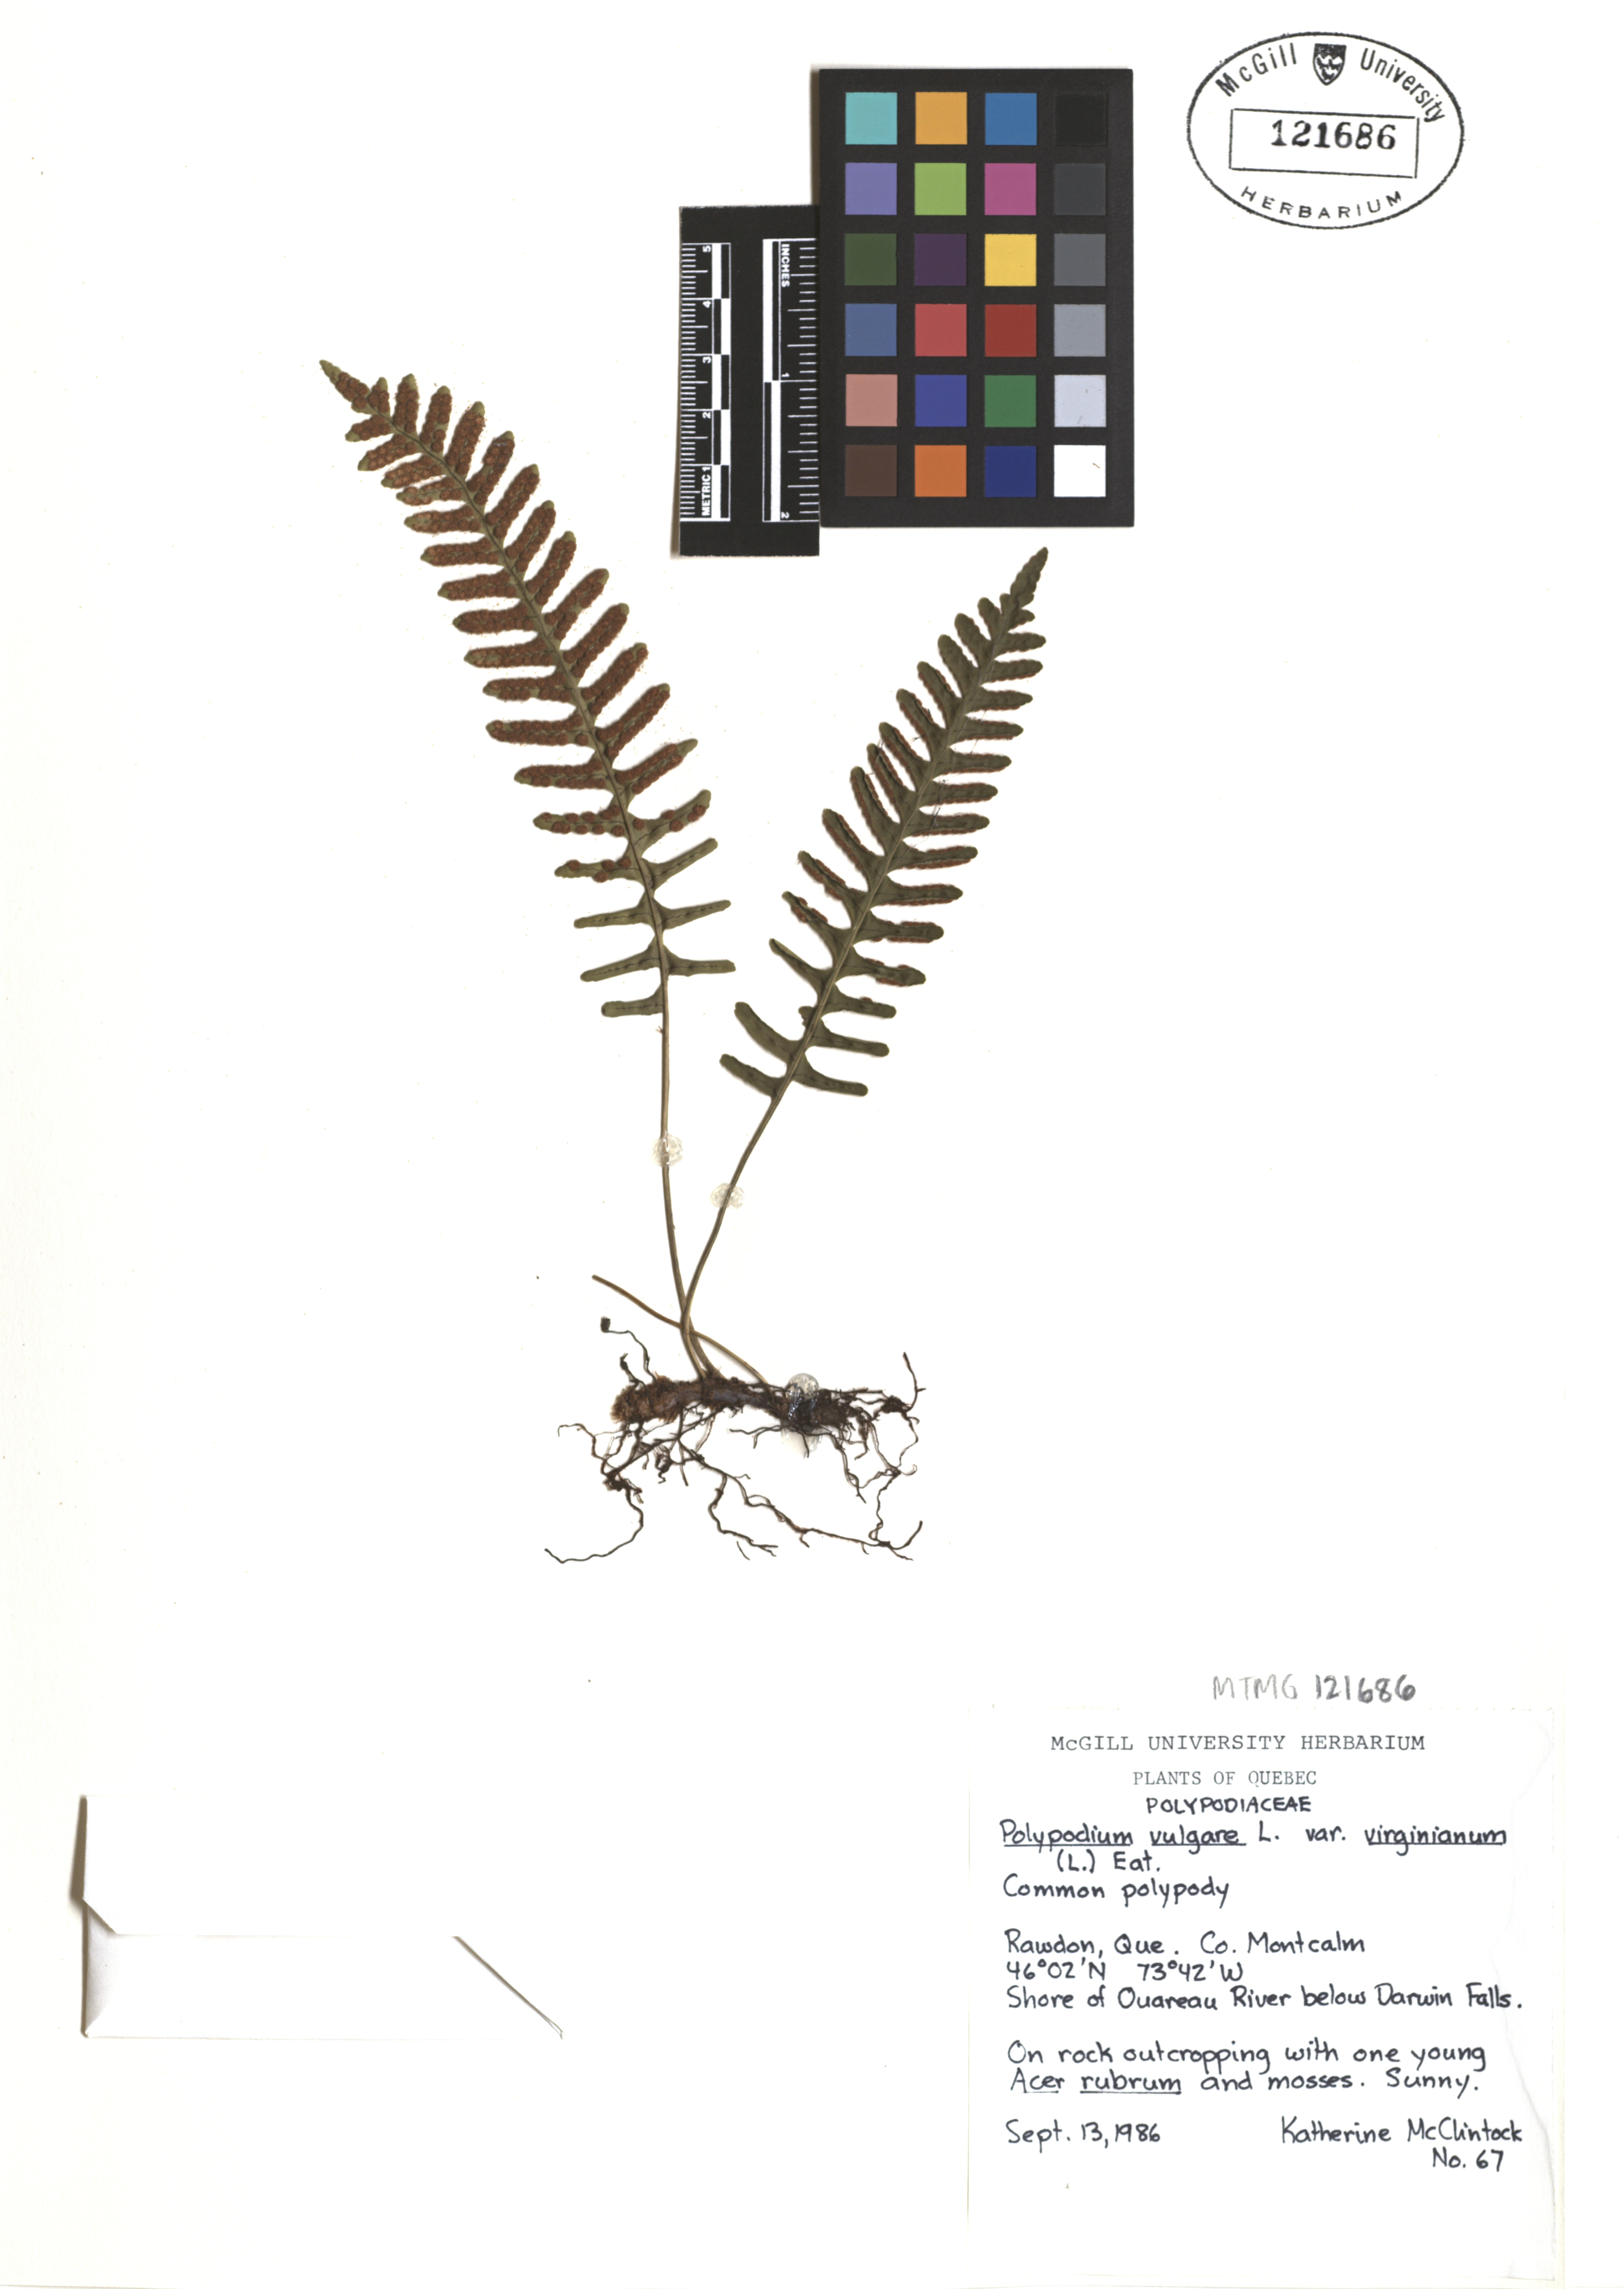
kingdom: Plantae
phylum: Tracheophyta
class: Polypodiopsida
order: Polypodiales
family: Polypodiaceae
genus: Polypodium
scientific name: Polypodium virginianum
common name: American wall fern
